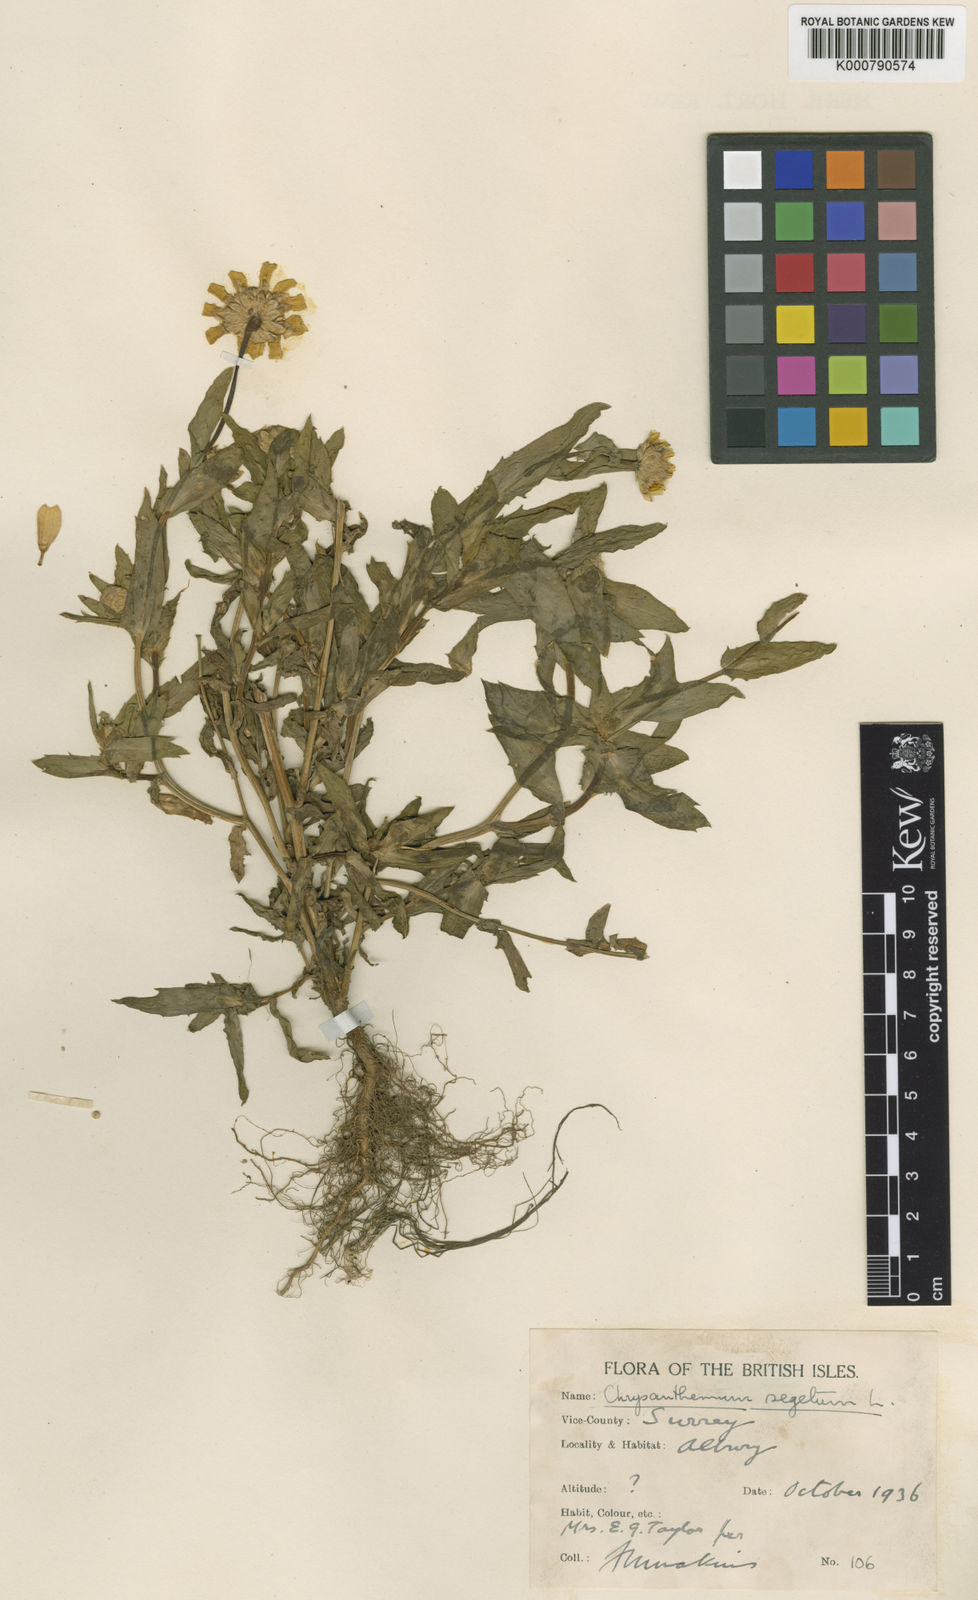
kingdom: Plantae
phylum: Tracheophyta
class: Magnoliopsida
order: Asterales
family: Asteraceae
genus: Glebionis
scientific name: Glebionis
